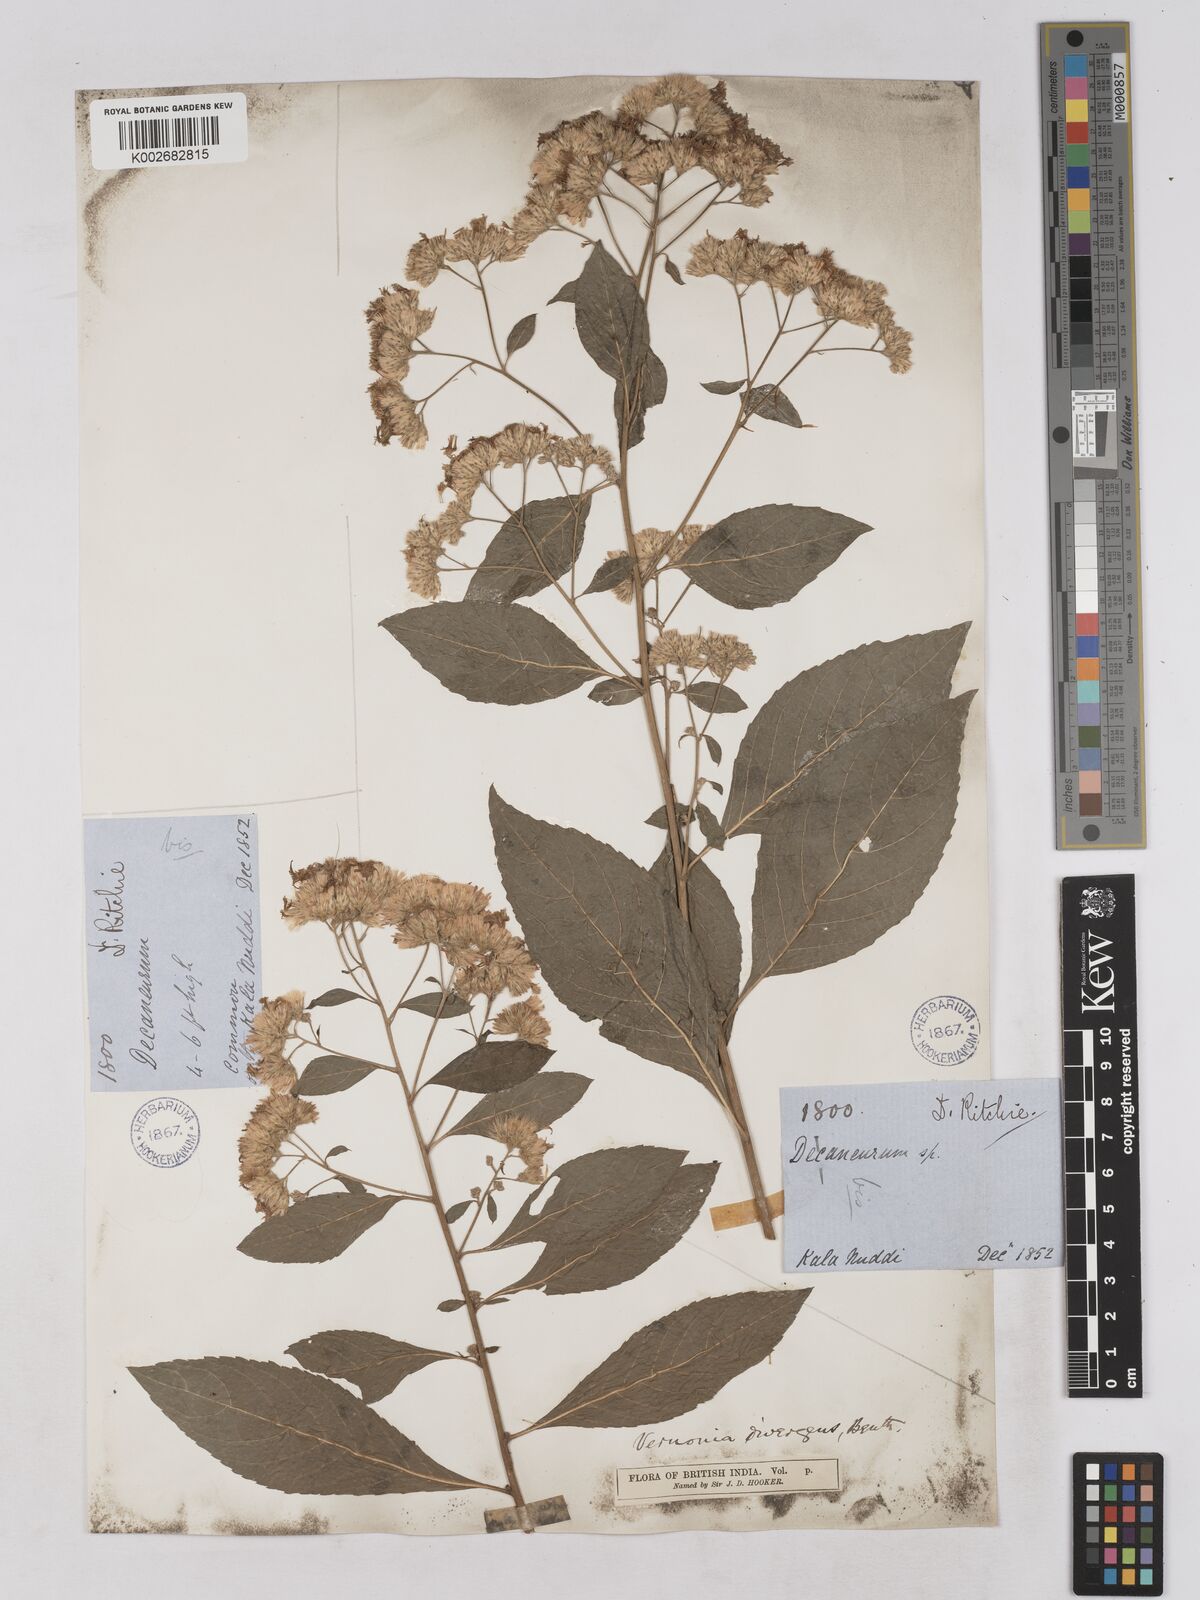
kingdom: Plantae
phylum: Tracheophyta
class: Magnoliopsida
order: Asterales
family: Asteraceae
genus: Acilepis
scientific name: Acilepis divergens
